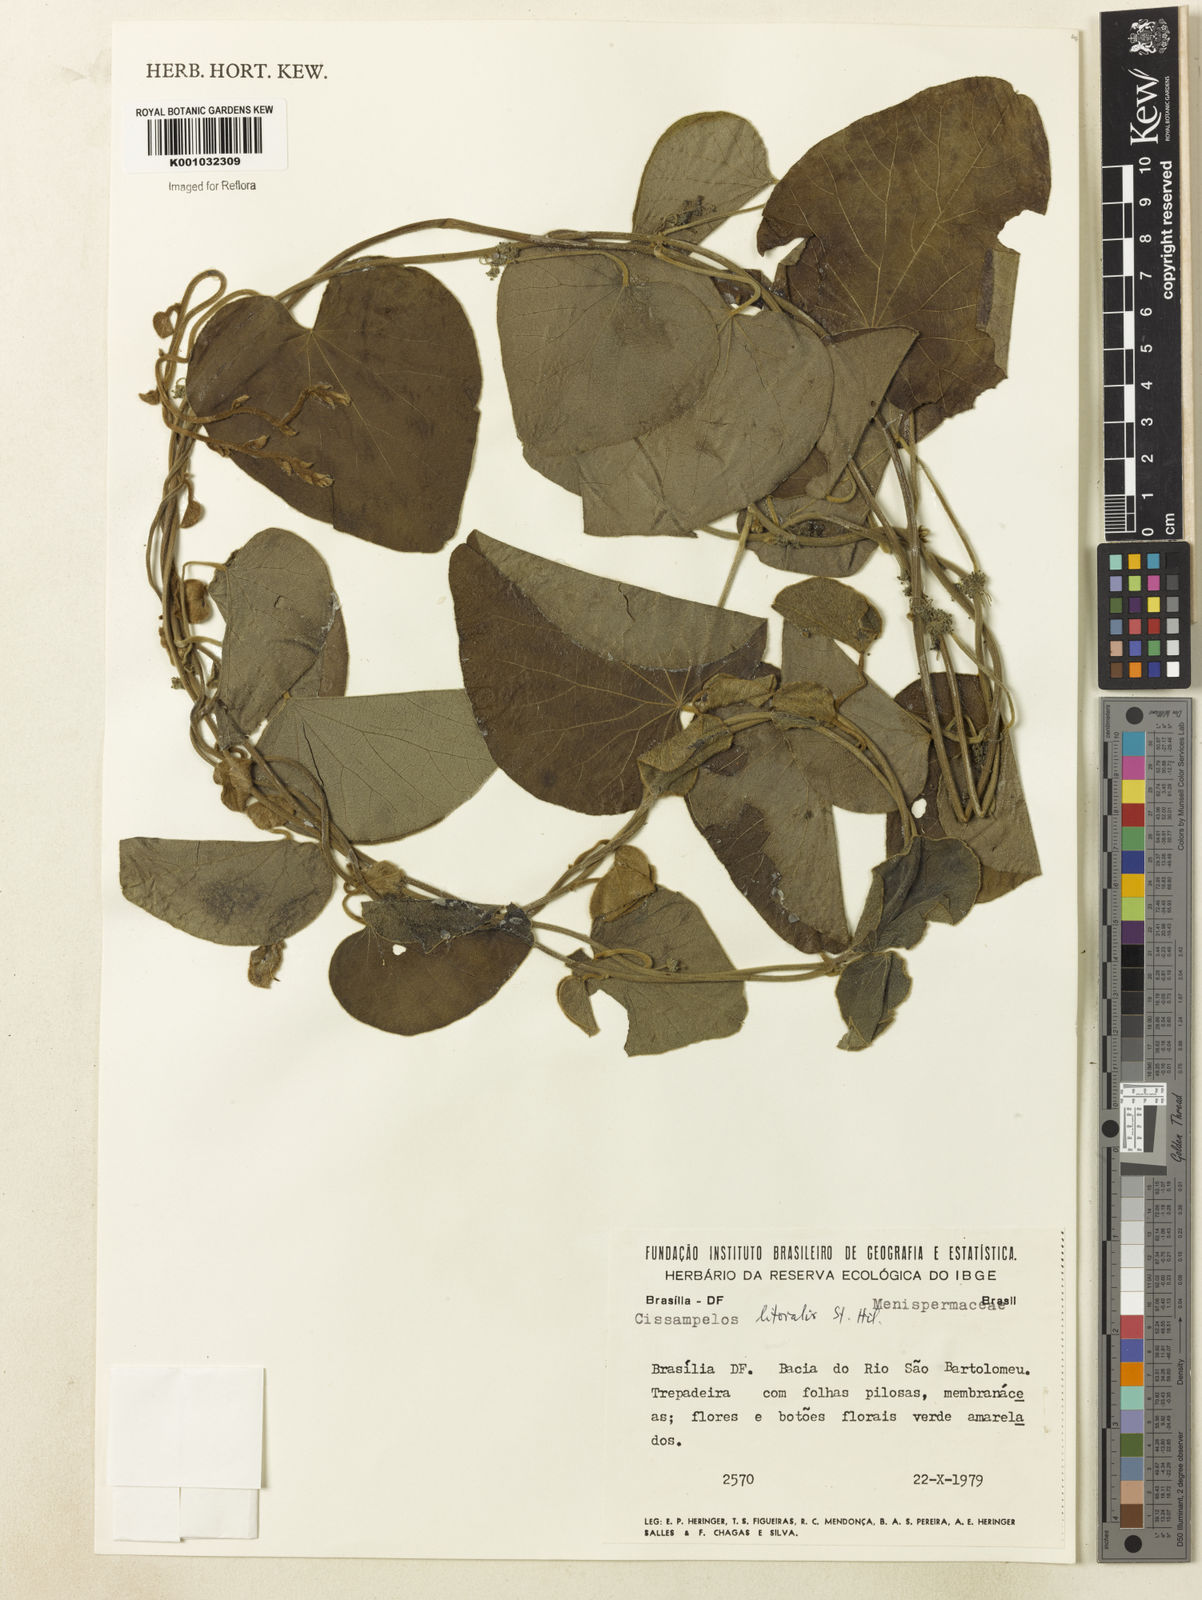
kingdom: Plantae
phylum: Tracheophyta
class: Magnoliopsida
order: Ranunculales
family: Menispermaceae
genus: Cissampelos
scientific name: Cissampelos pareira
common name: Velvetleaf
